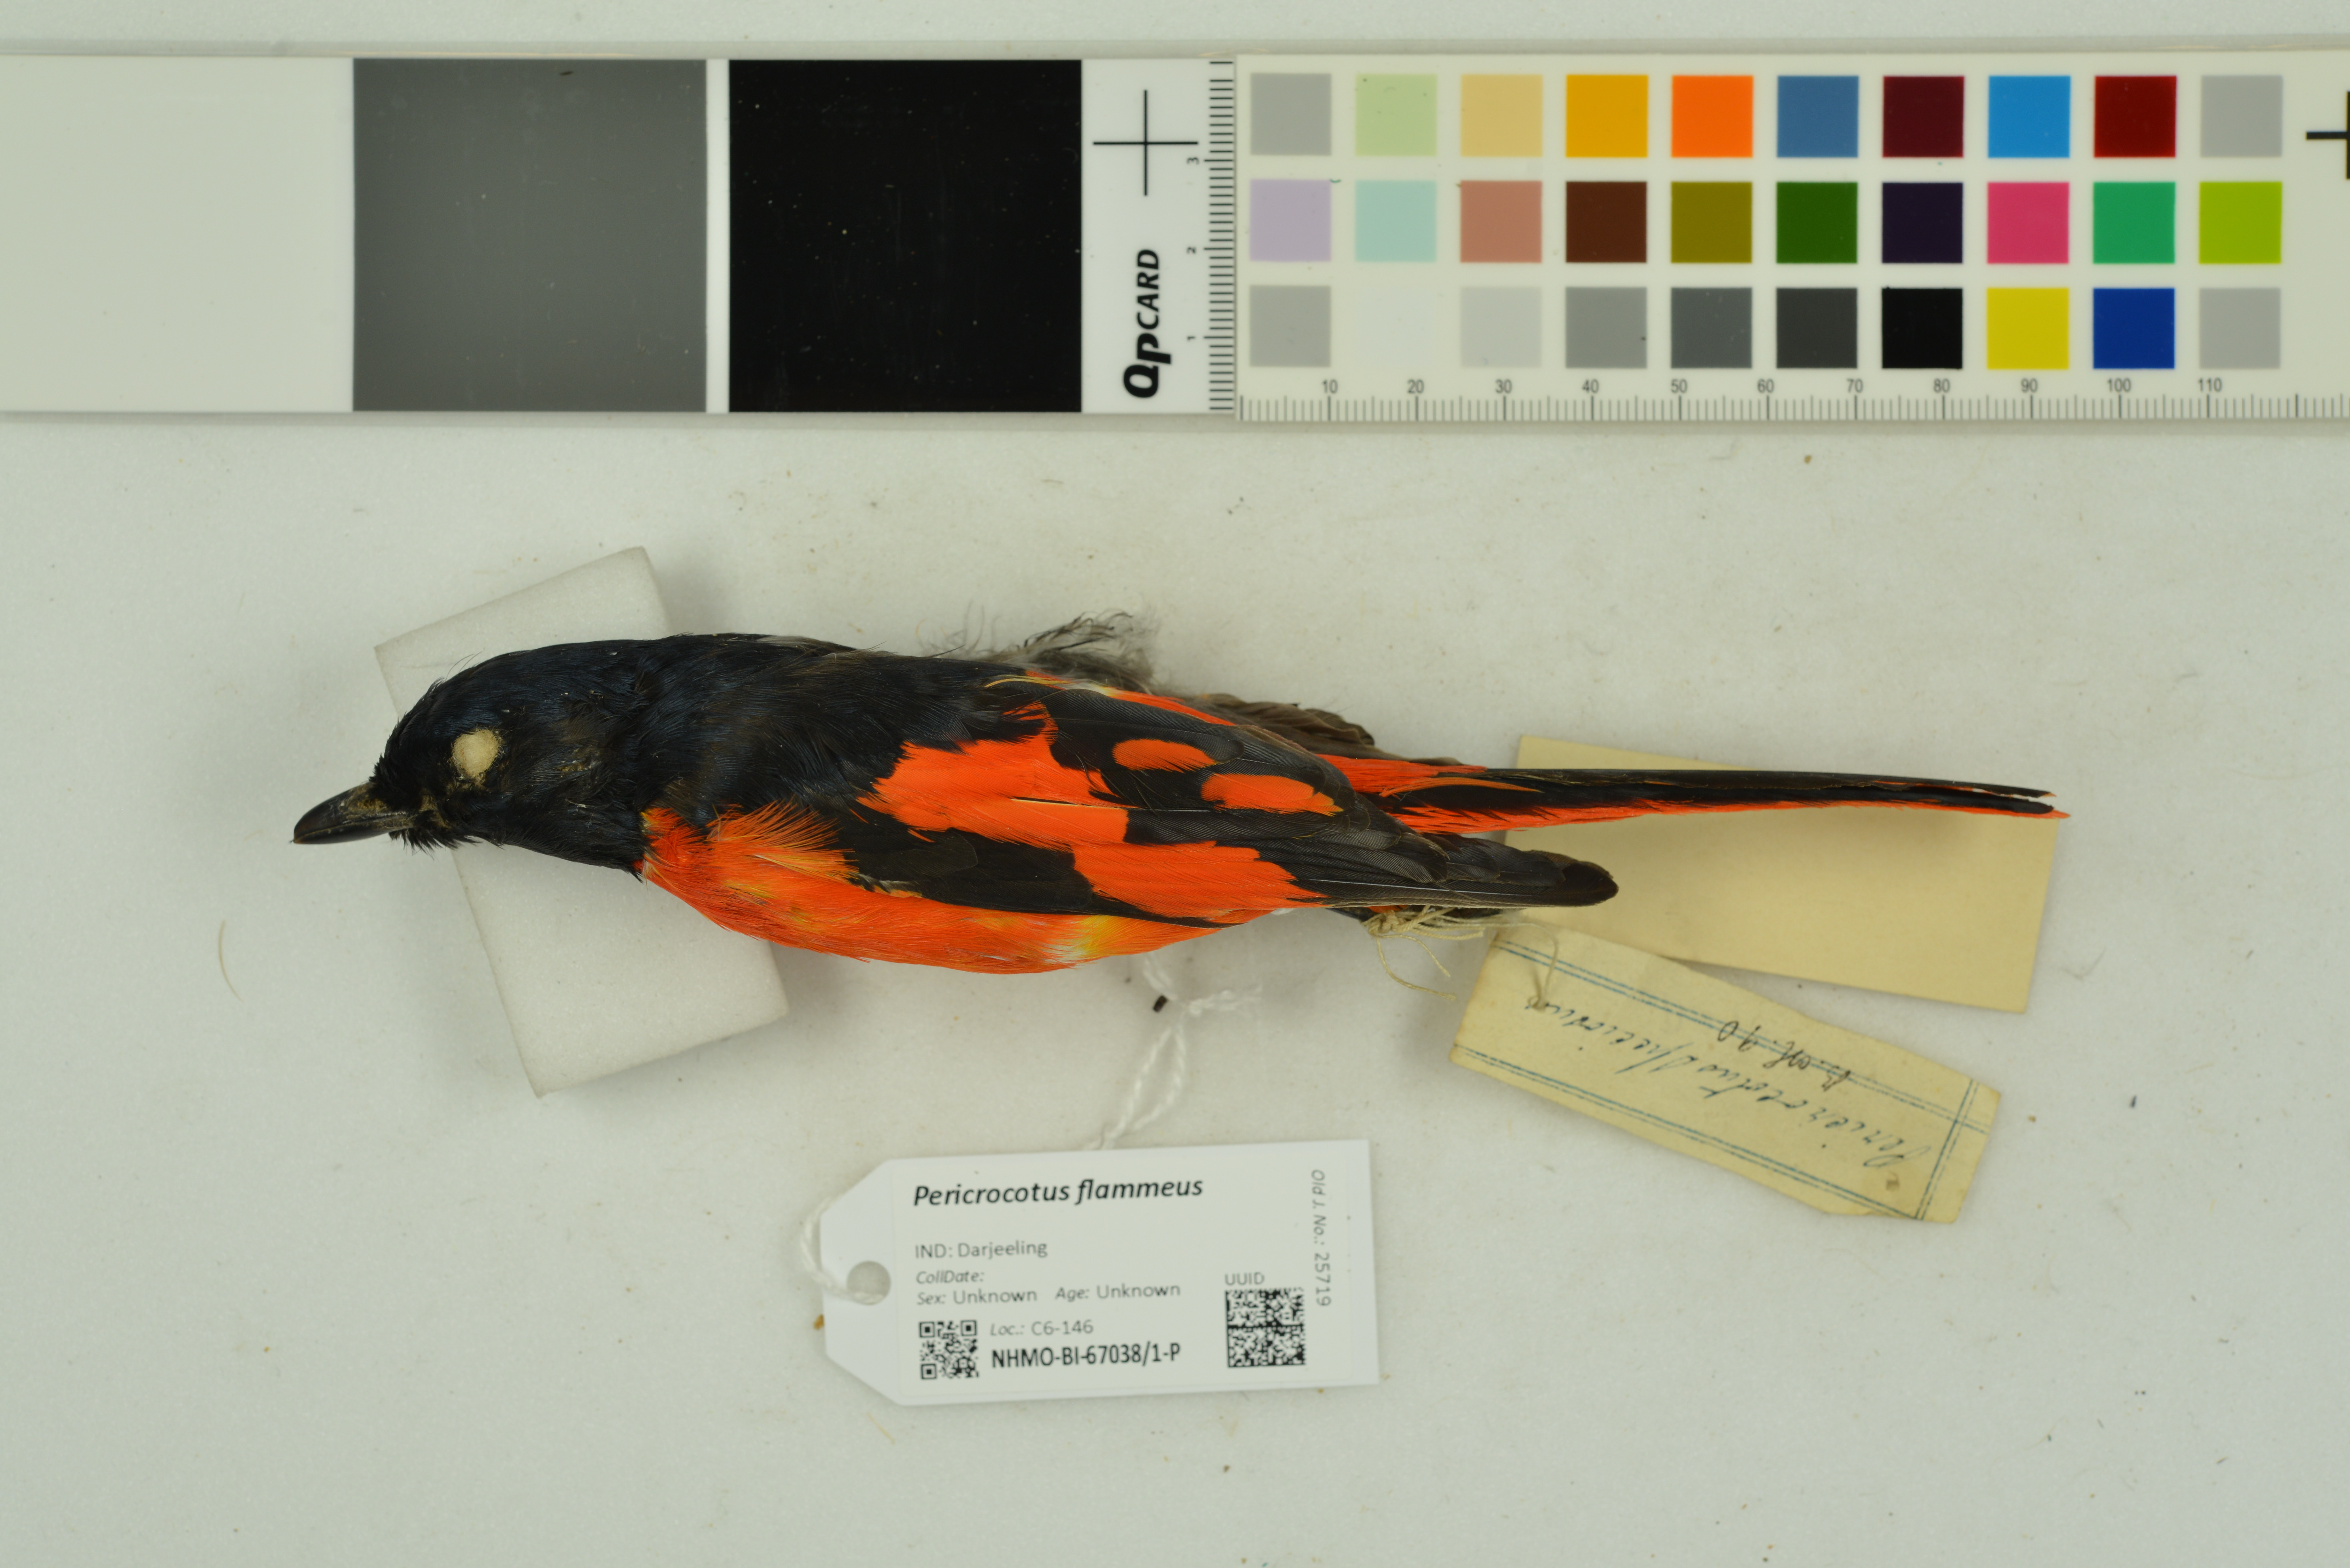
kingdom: Animalia
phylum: Chordata
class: Aves
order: Passeriformes
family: Campephagidae
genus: Pericrocotus
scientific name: Pericrocotus flammeus
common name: Orange minivet
